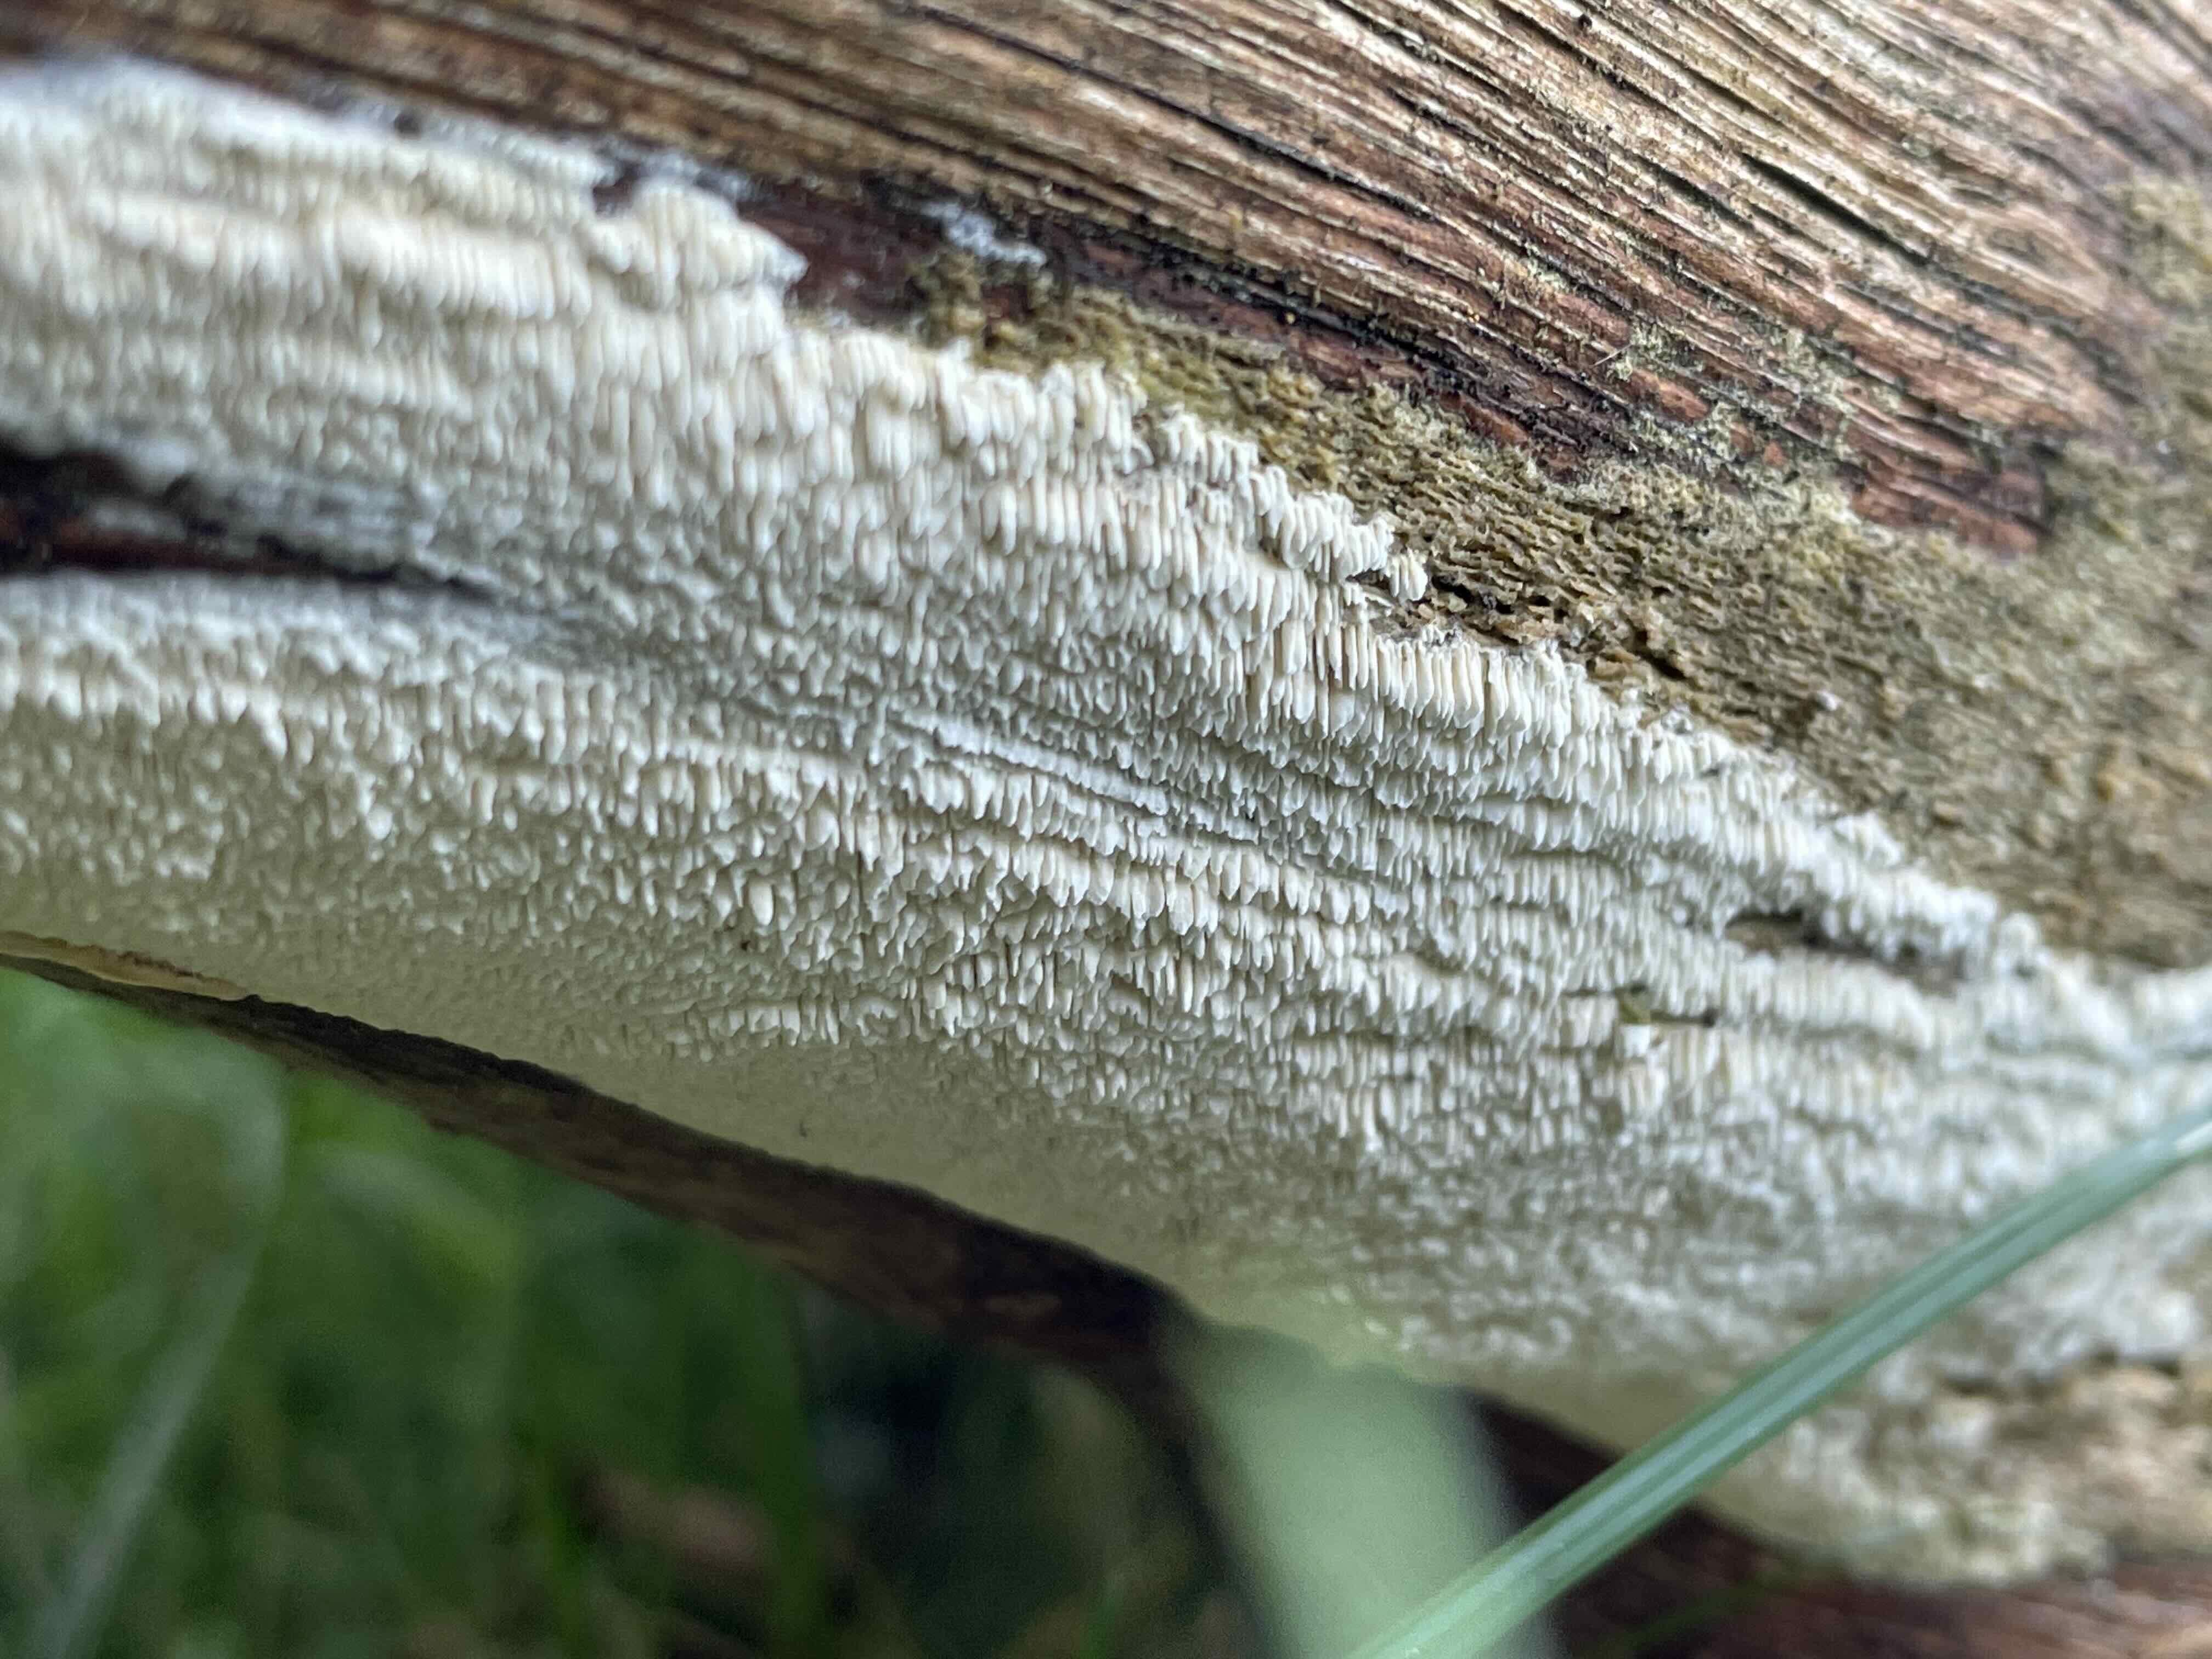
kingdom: Fungi
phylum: Basidiomycota
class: Agaricomycetes
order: Hymenochaetales
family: Schizoporaceae
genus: Xylodon
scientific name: Xylodon
